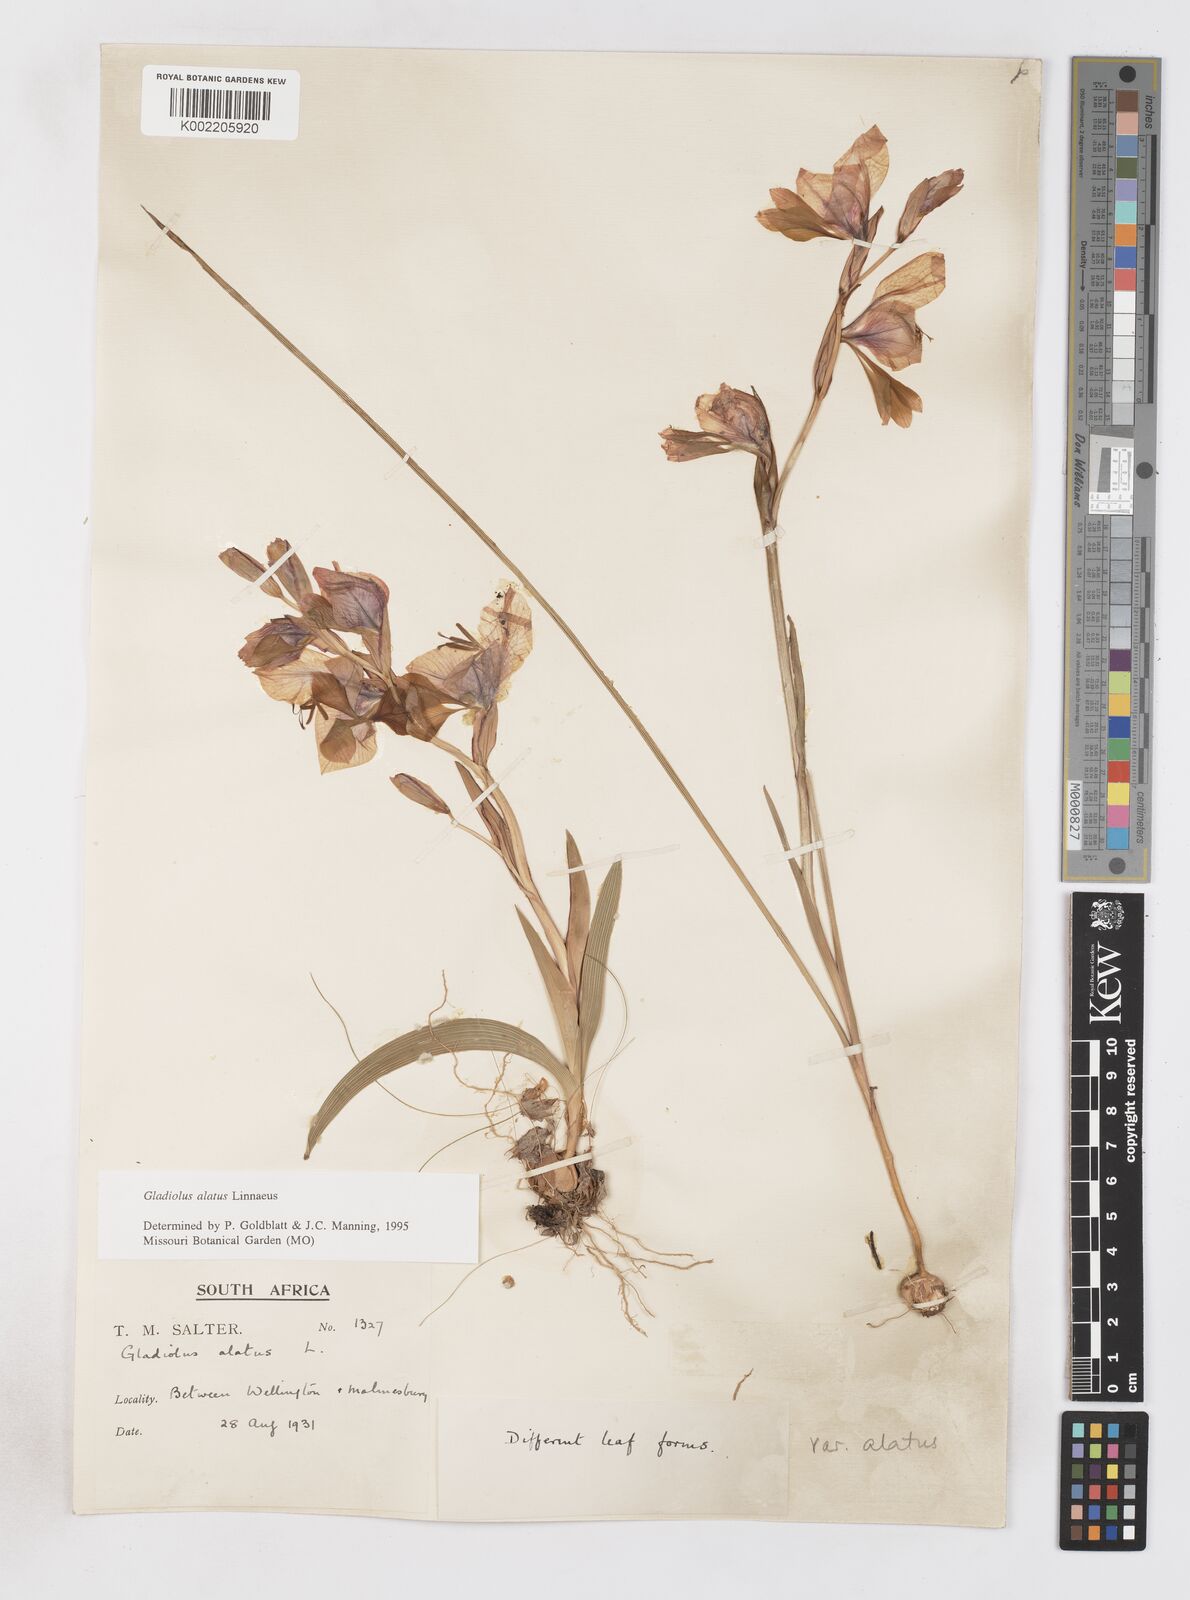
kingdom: Plantae
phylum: Tracheophyta
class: Liliopsida
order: Asparagales
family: Iridaceae
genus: Gladiolus
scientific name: Gladiolus alatus
